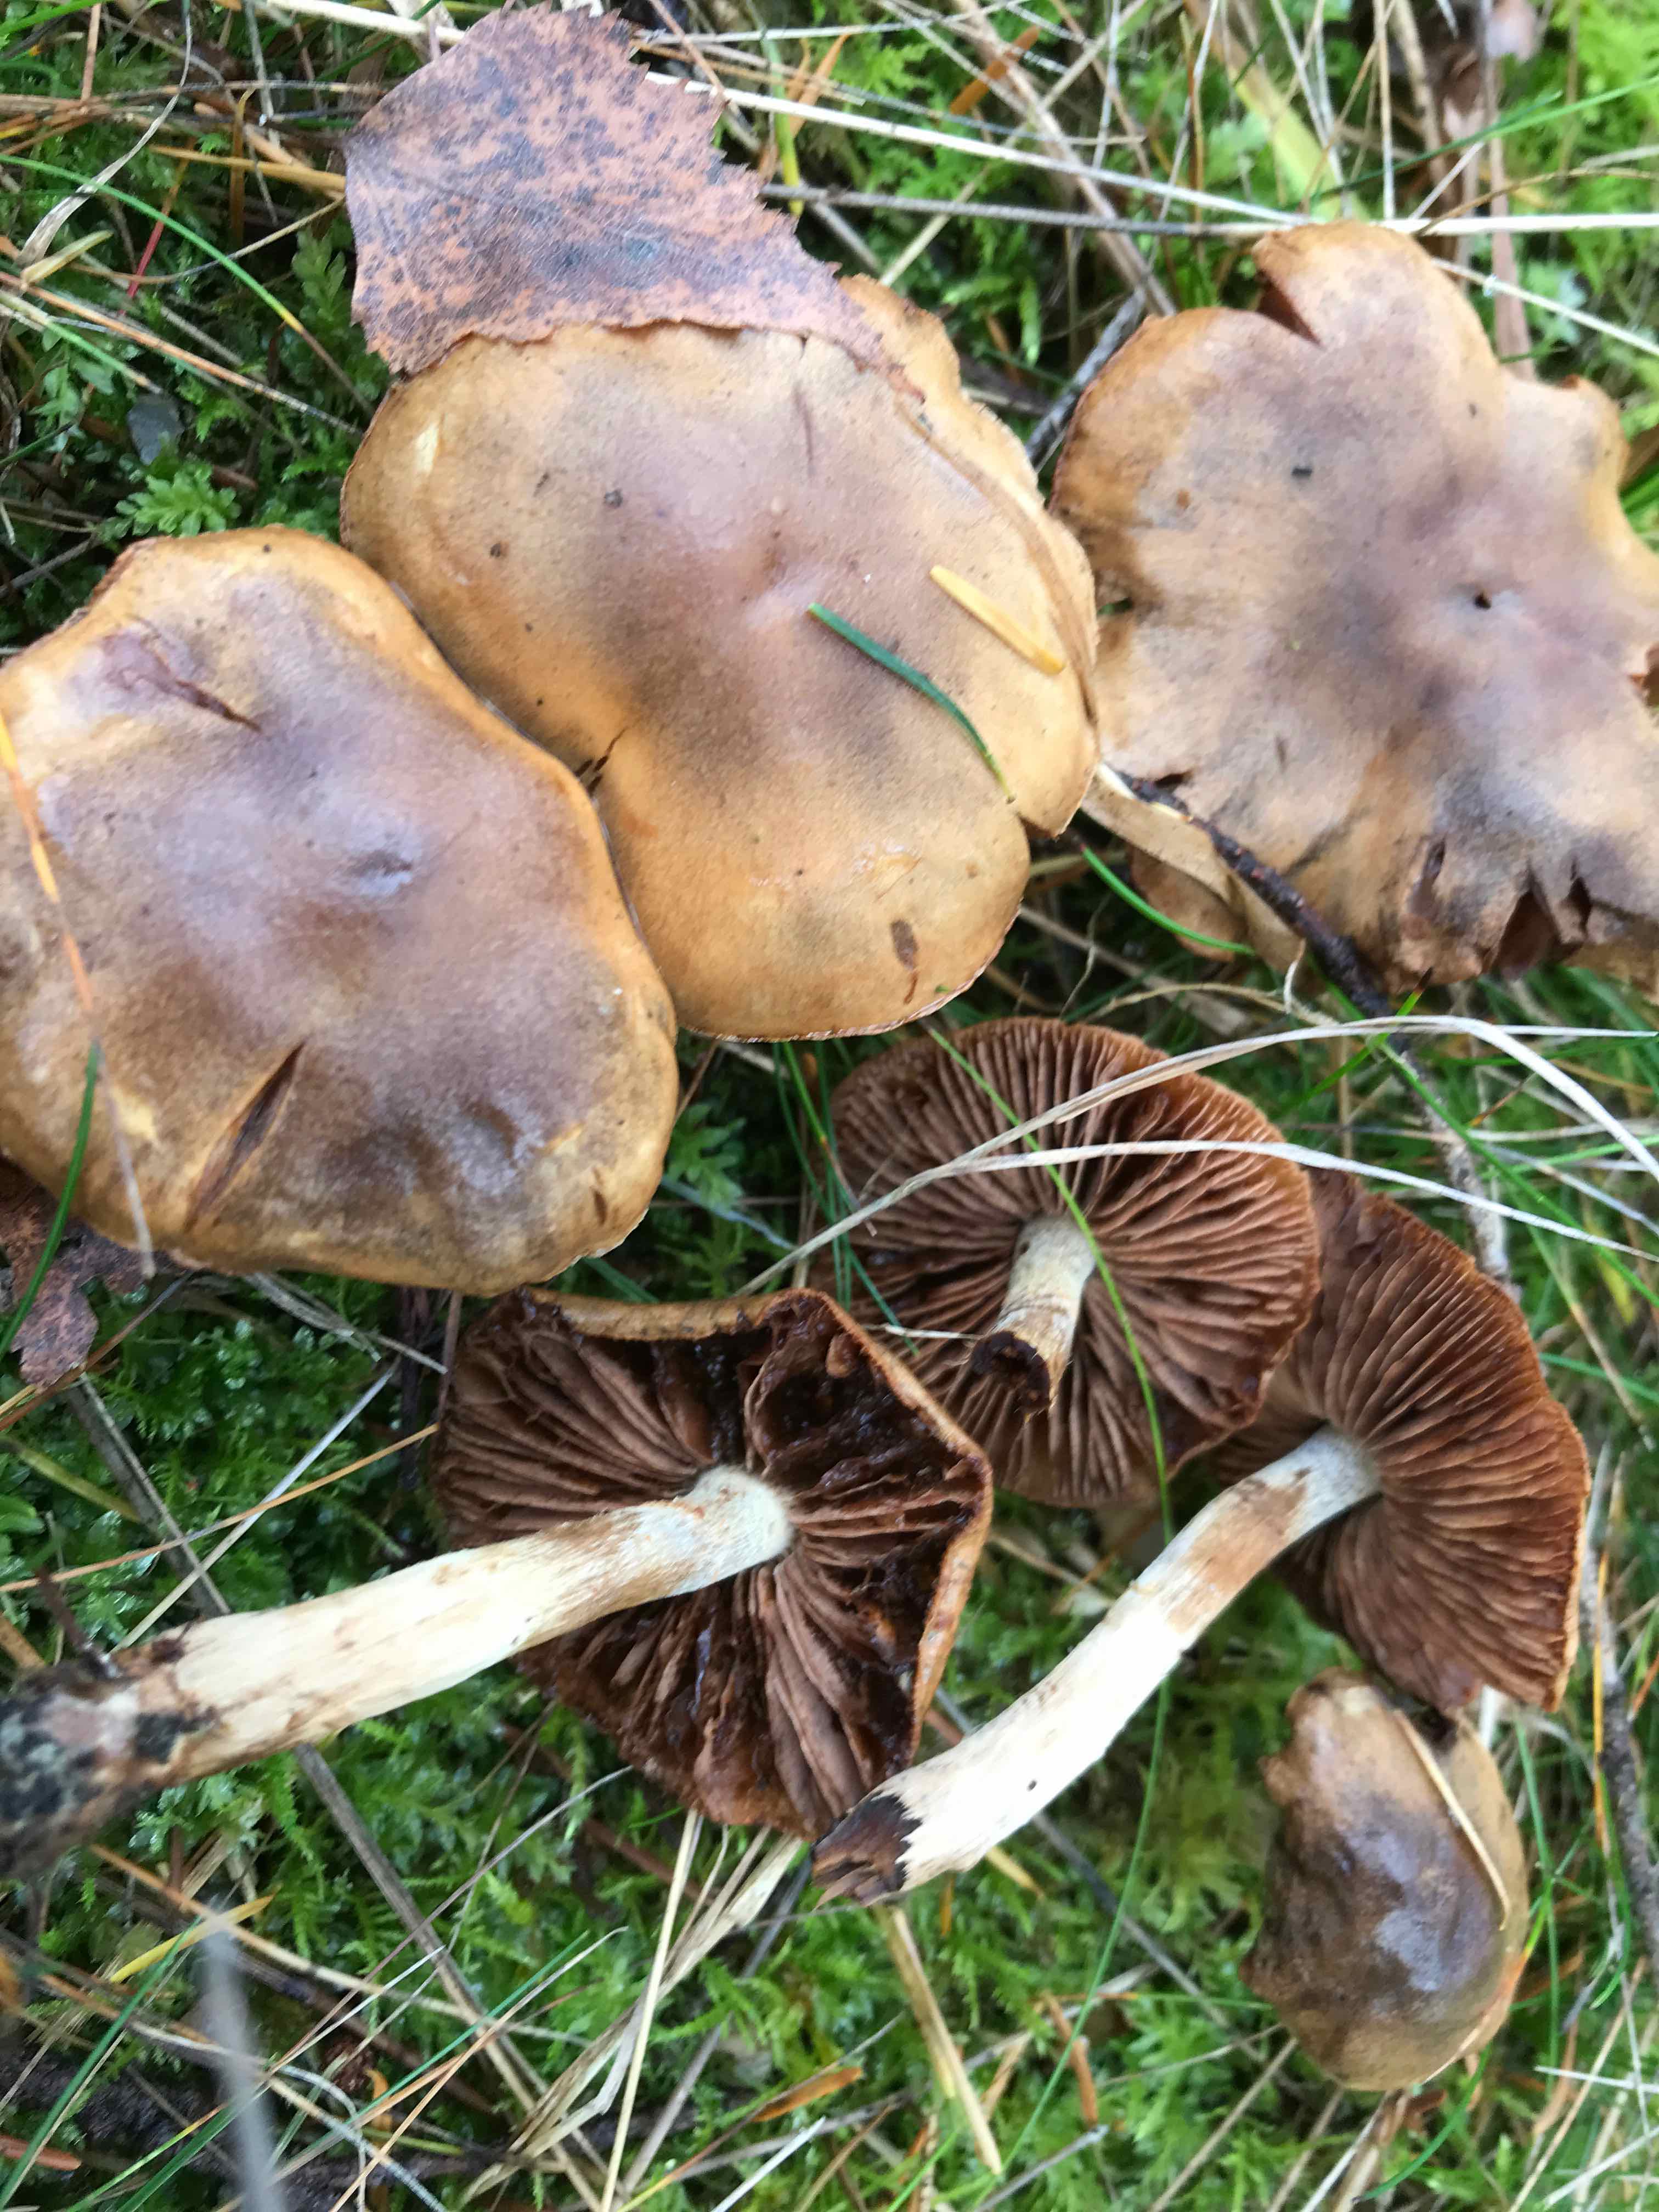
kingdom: Fungi
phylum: Basidiomycota
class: Agaricomycetes
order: Agaricales
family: Cortinariaceae
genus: Cortinarius
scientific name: Cortinarius
